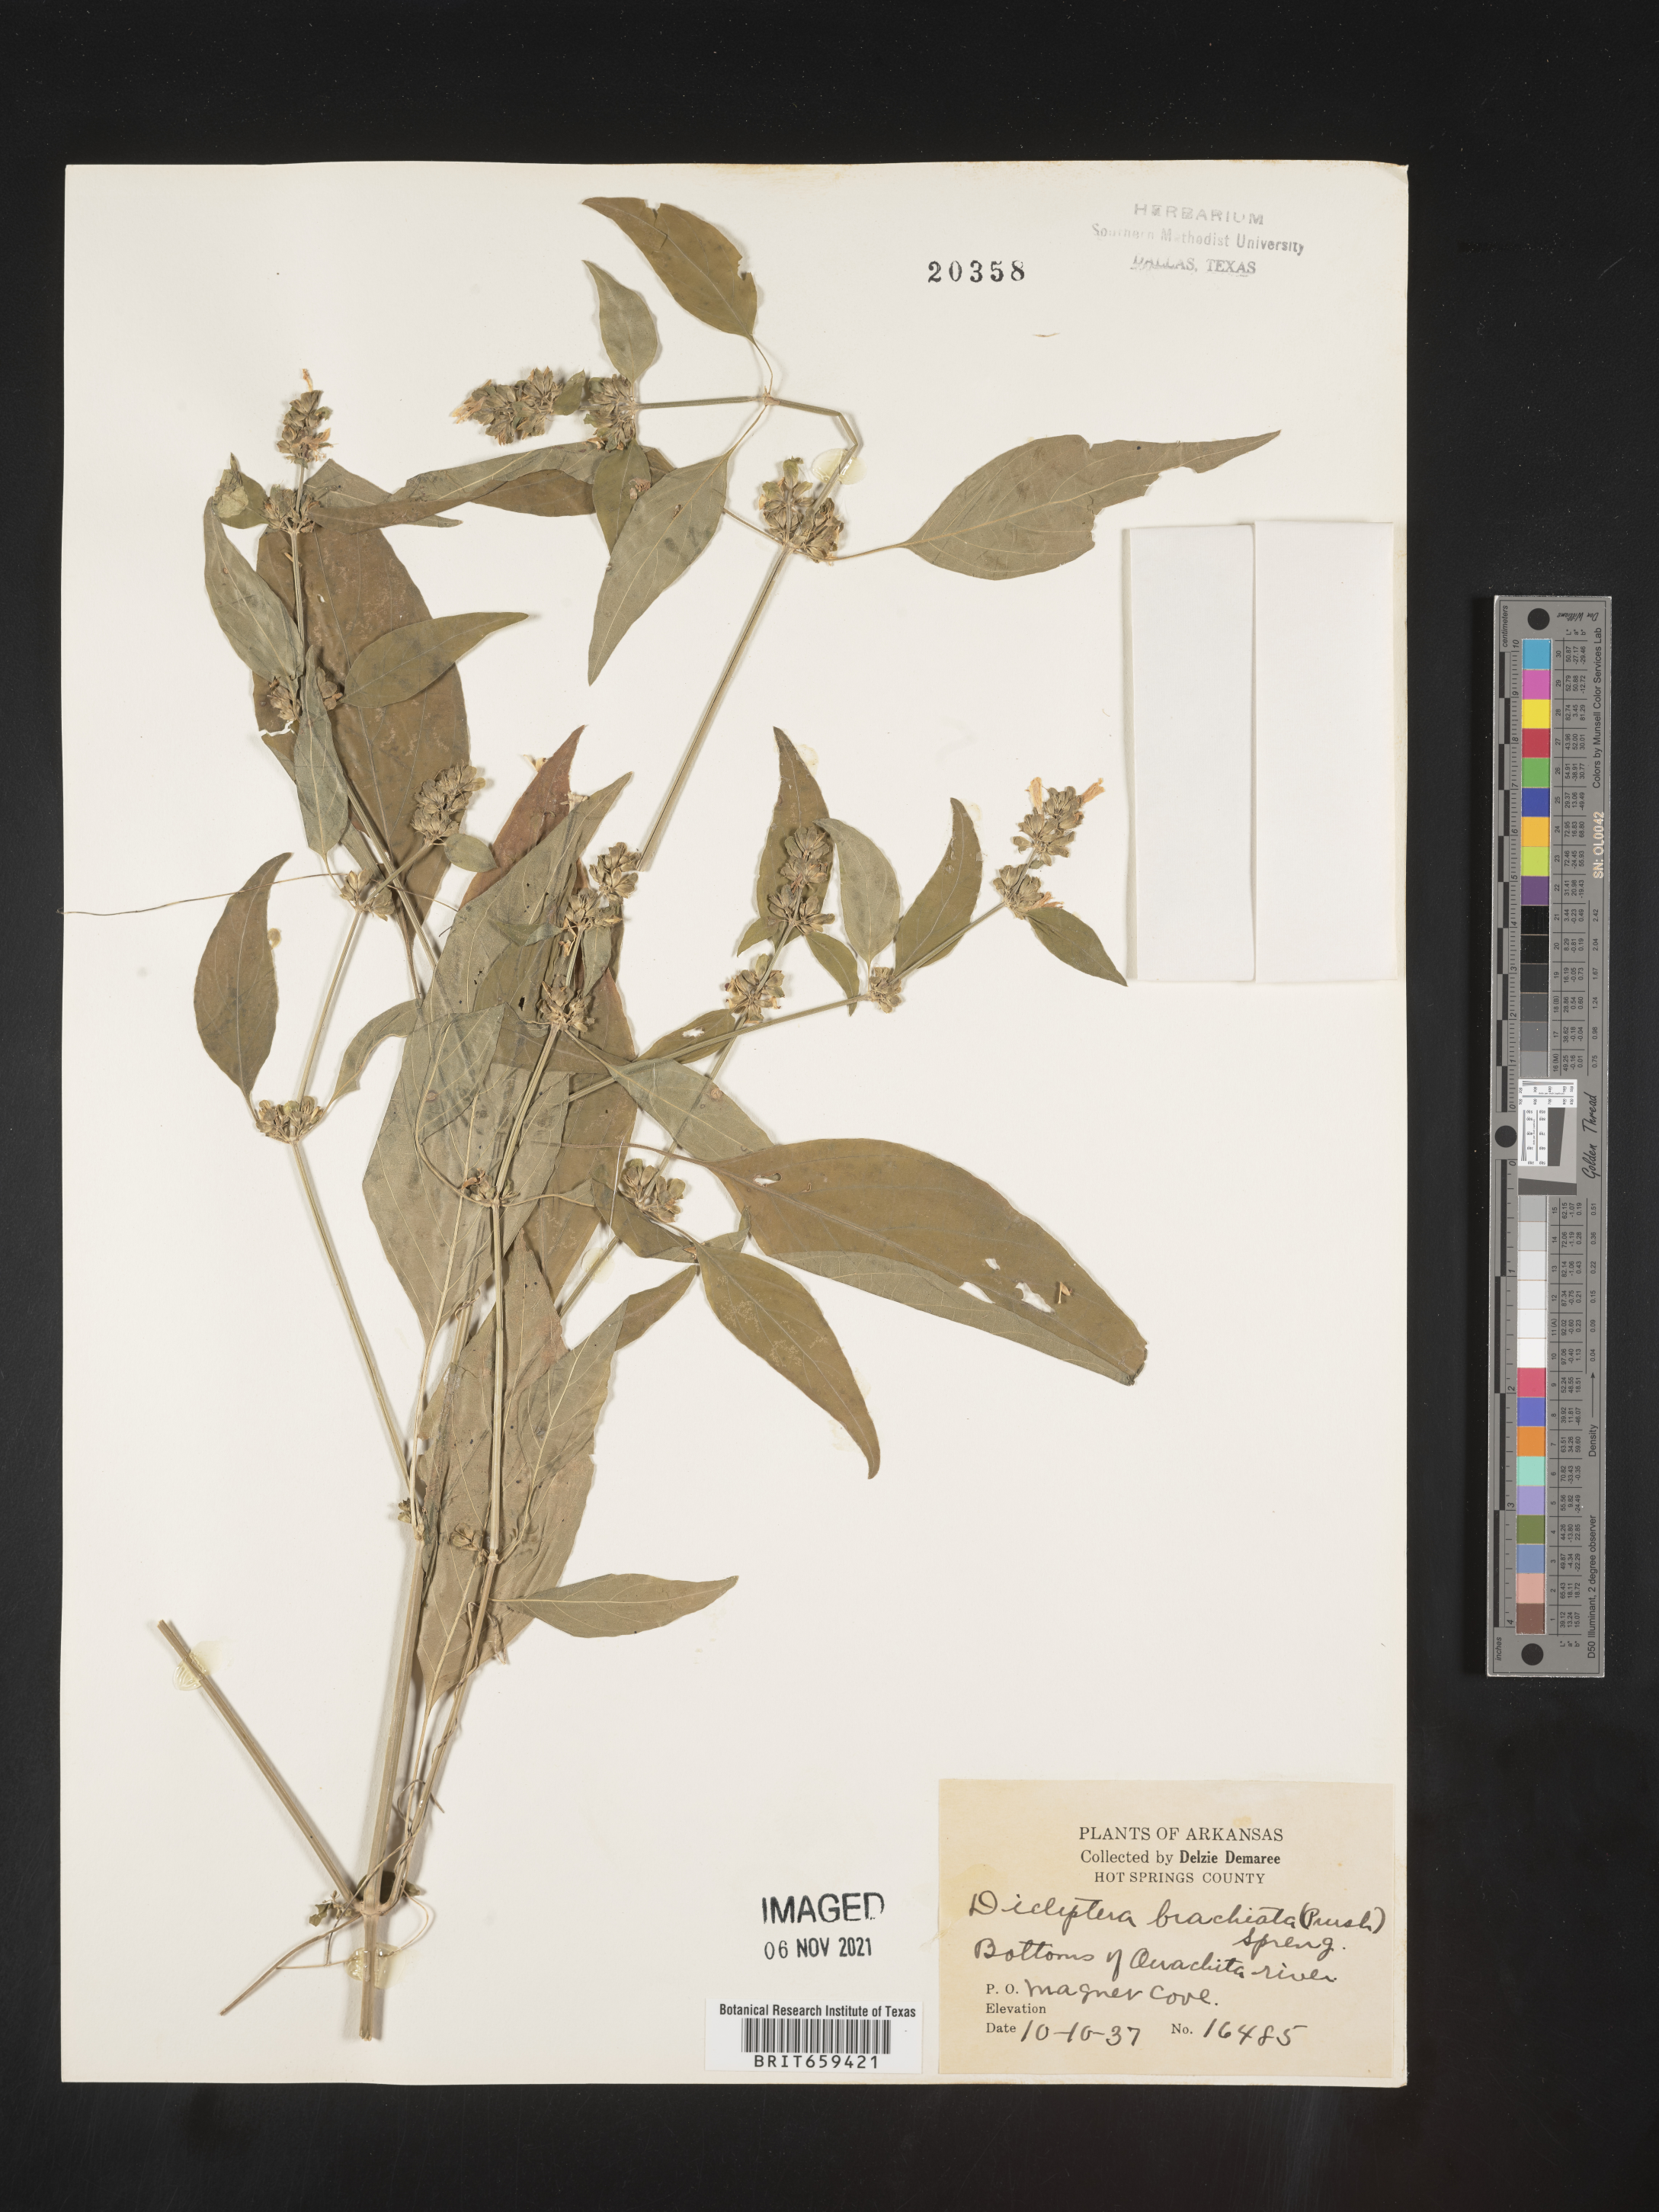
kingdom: Plantae
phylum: Tracheophyta
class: Magnoliopsida
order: Lamiales
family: Acanthaceae
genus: Dicliptera
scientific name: Dicliptera brachiata
